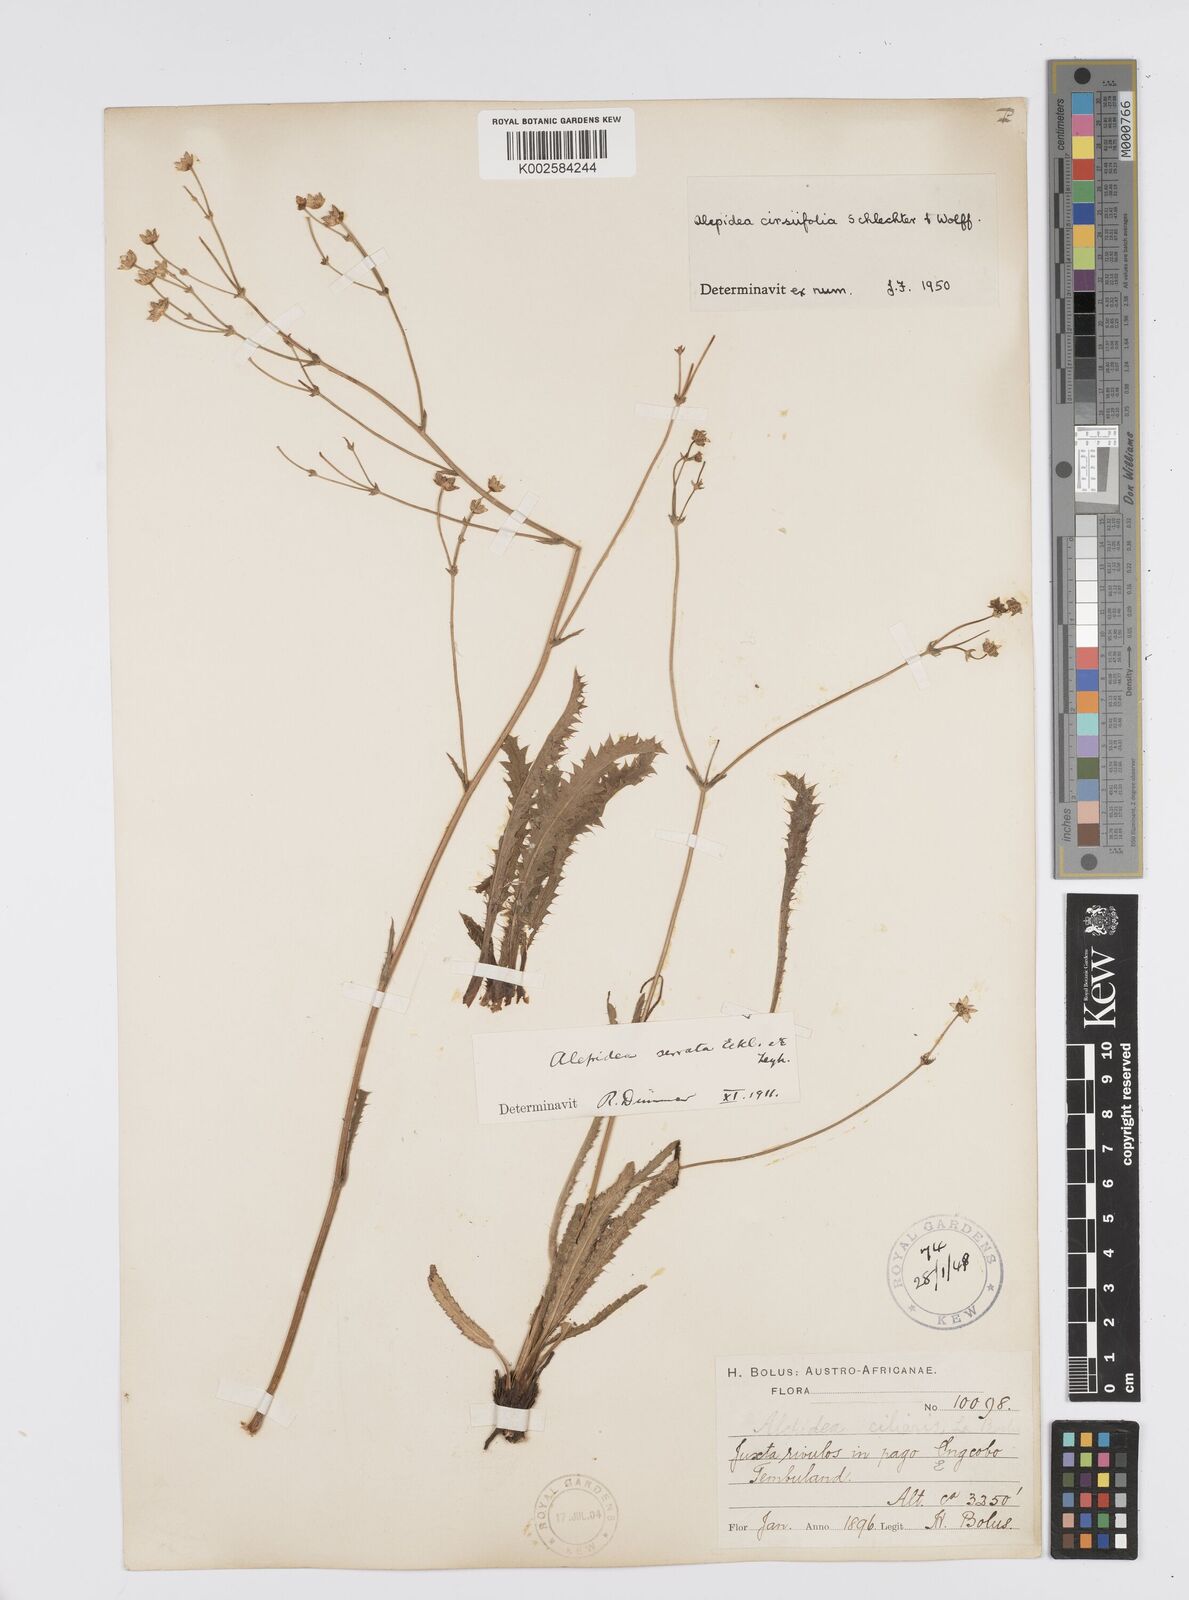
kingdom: Plantae
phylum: Tracheophyta
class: Magnoliopsida
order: Apiales
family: Apiaceae
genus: Alepidea
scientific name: Alepidea cirsiifolia
